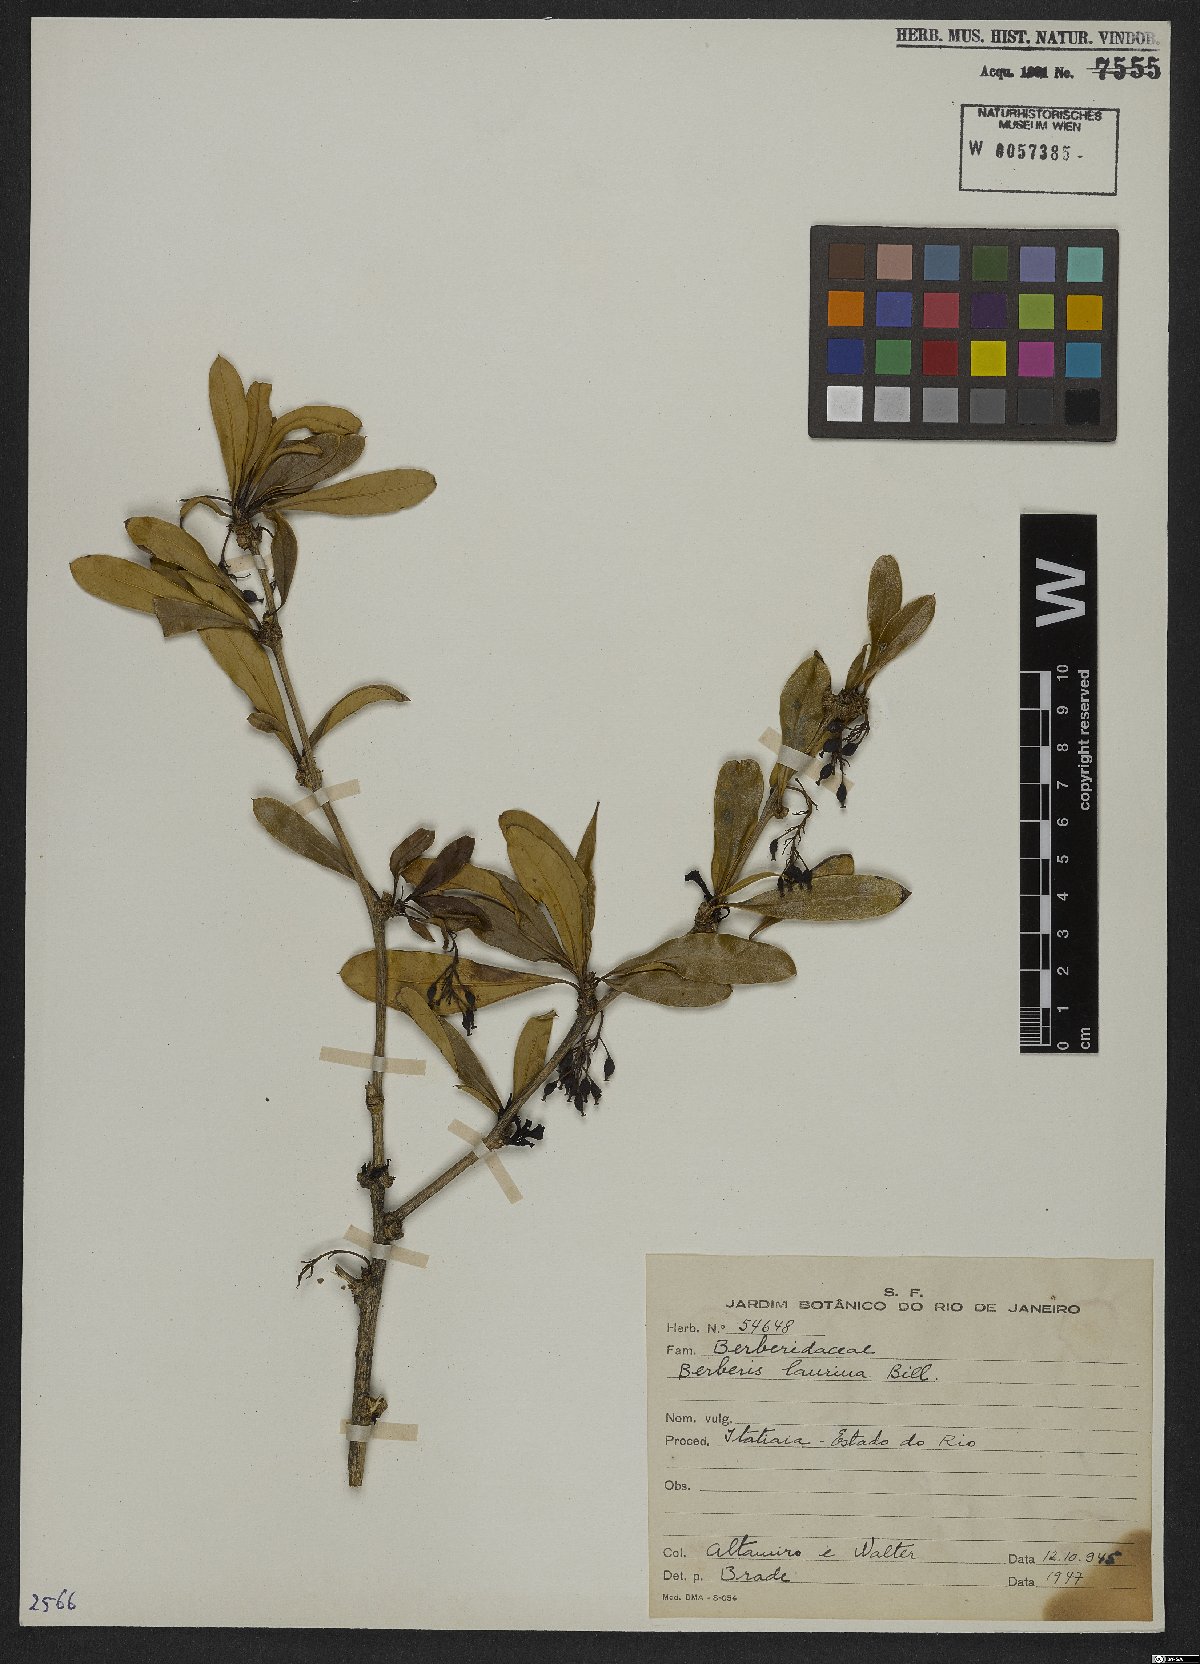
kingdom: Plantae
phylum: Tracheophyta
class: Magnoliopsida
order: Ranunculales
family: Berberidaceae
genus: Berberis
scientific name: Berberis laurina
